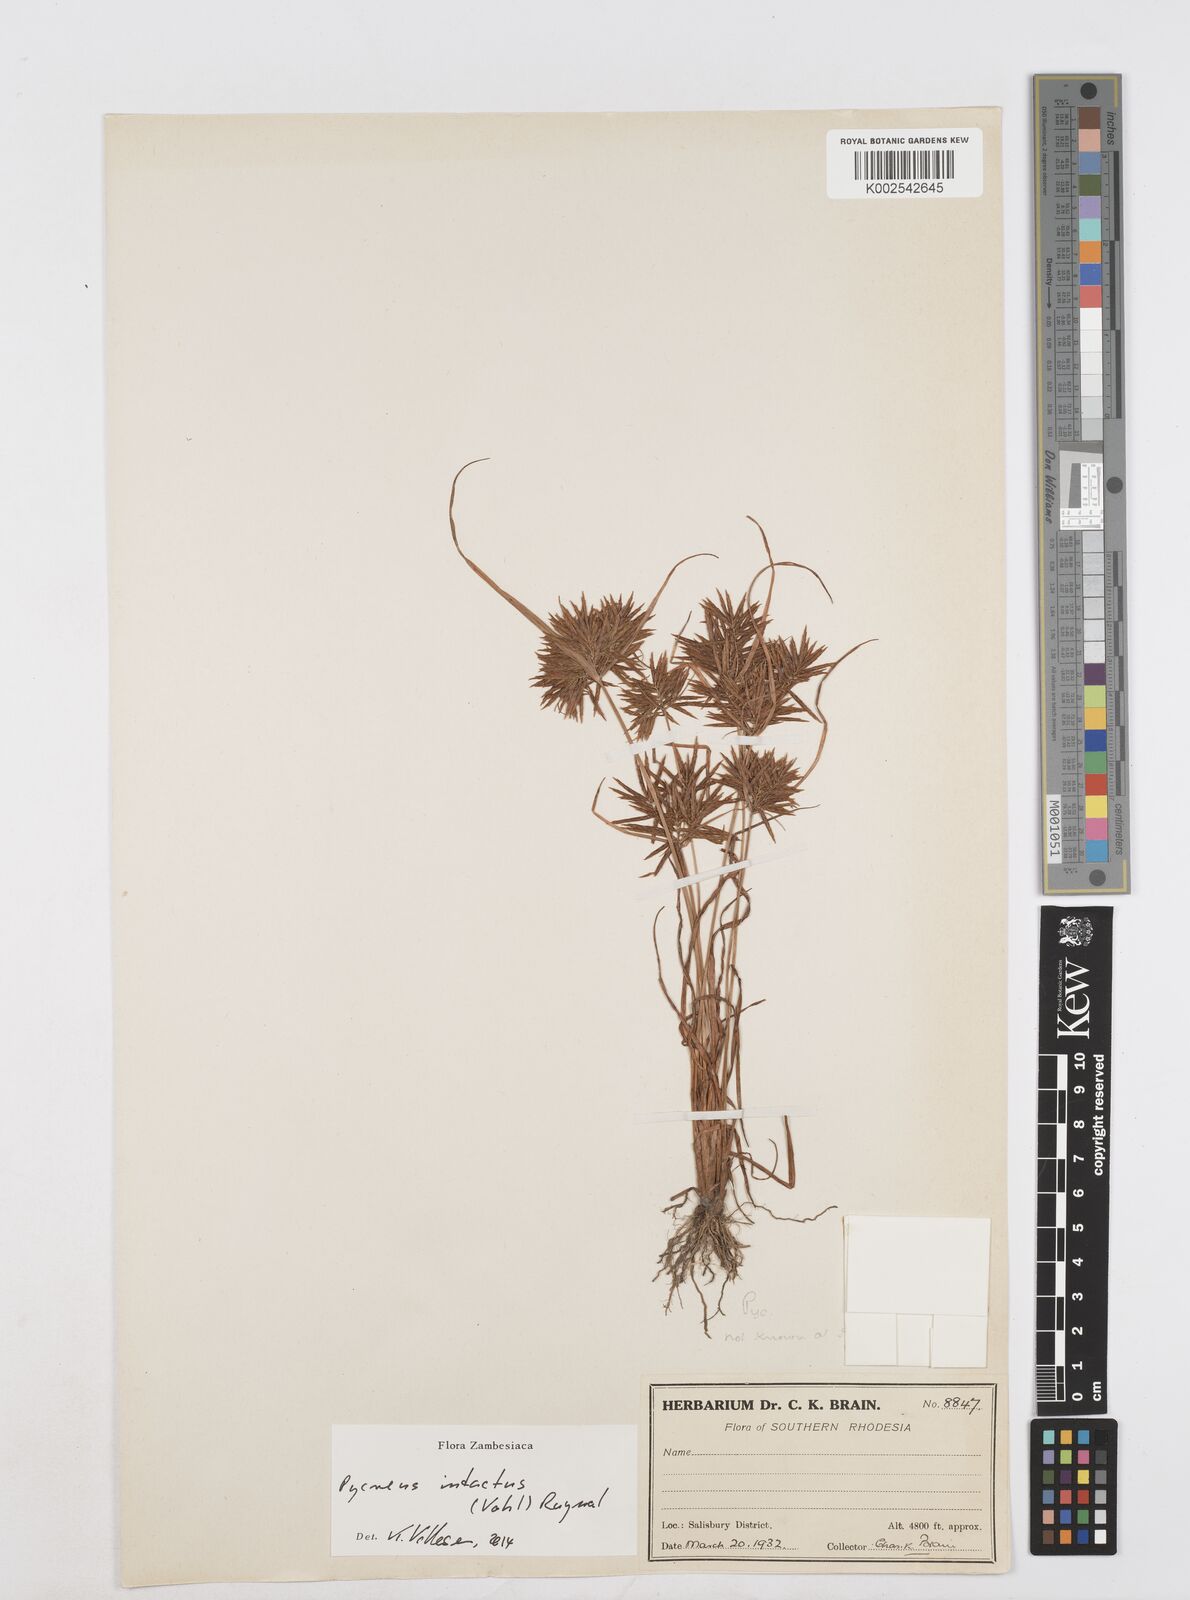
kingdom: Plantae
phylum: Tracheophyta
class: Liliopsida
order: Poales
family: Cyperaceae
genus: Cyperus
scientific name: Cyperus intactus
